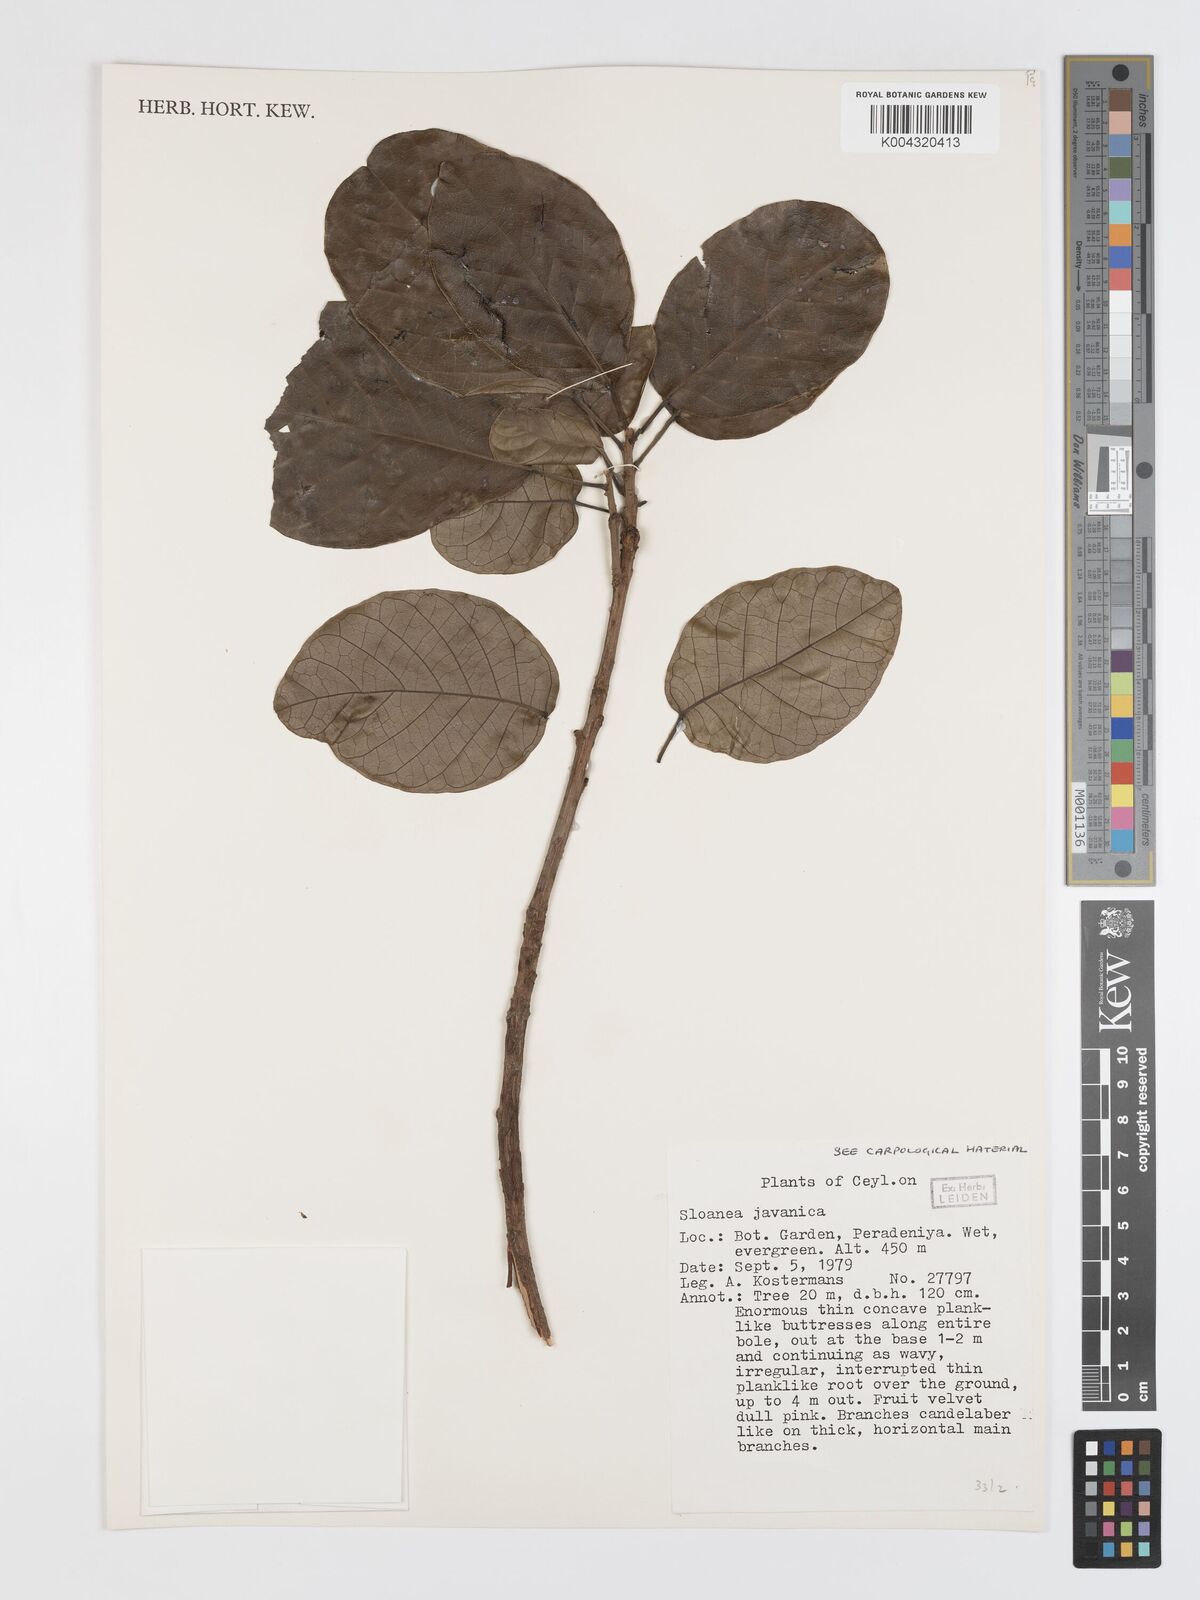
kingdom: Plantae
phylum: Tracheophyta
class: Magnoliopsida
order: Oxalidales
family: Elaeocarpaceae
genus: Sloanea
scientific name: Sloanea javanica
